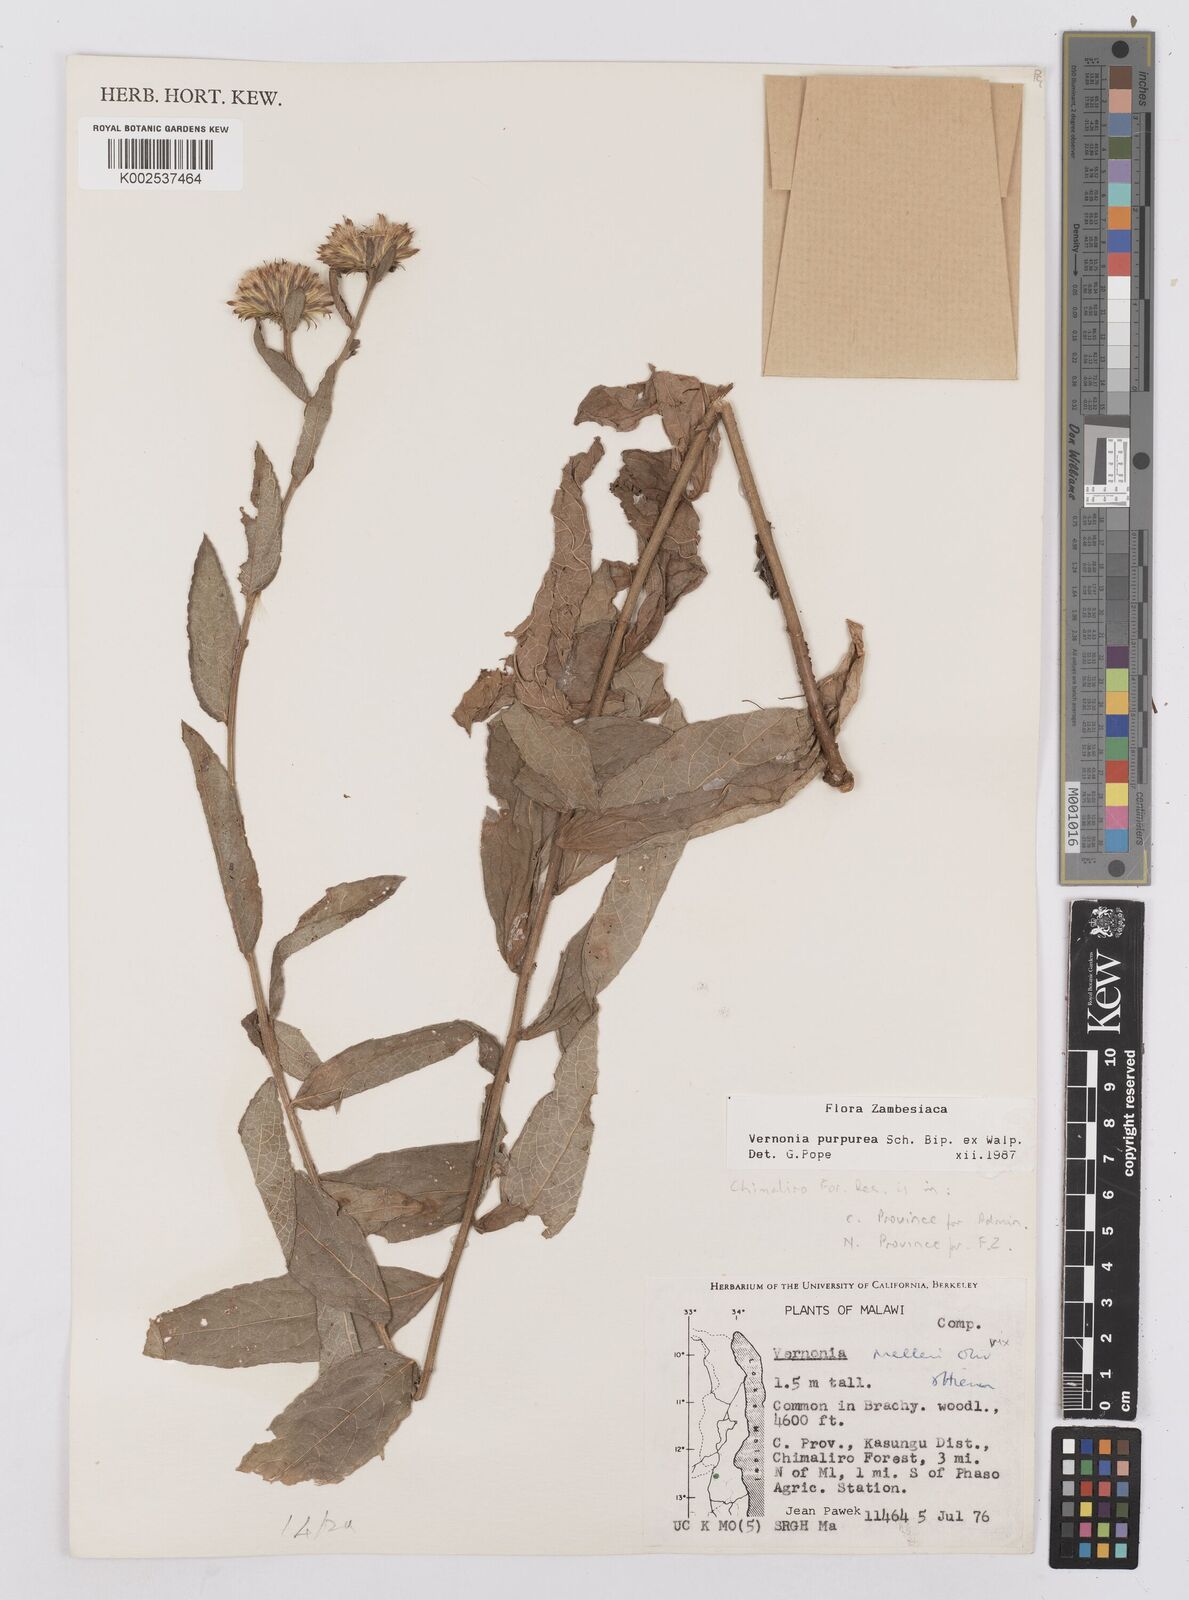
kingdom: Plantae
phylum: Tracheophyta
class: Magnoliopsida
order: Asterales
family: Asteraceae
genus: Nothovernonia
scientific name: Nothovernonia purpurea
